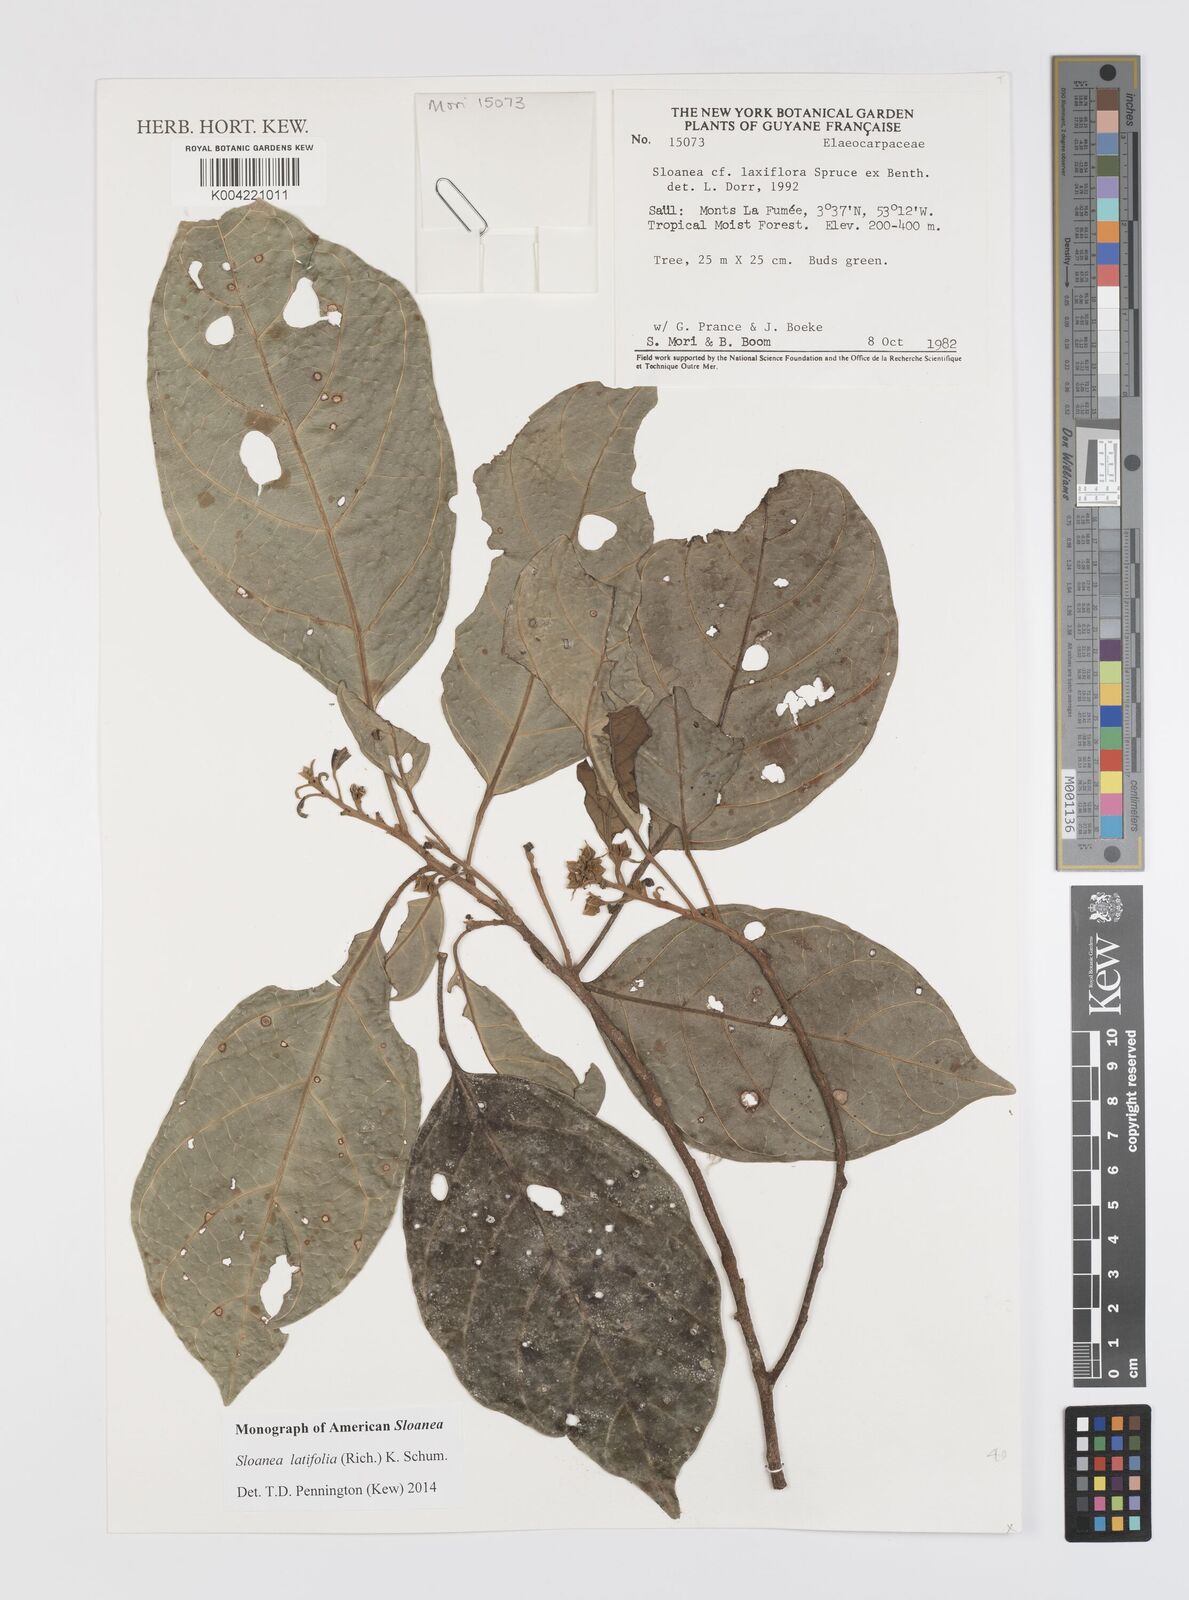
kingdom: Plantae
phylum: Tracheophyta
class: Magnoliopsida
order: Oxalidales
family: Elaeocarpaceae
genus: Sloanea
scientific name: Sloanea latifolia
